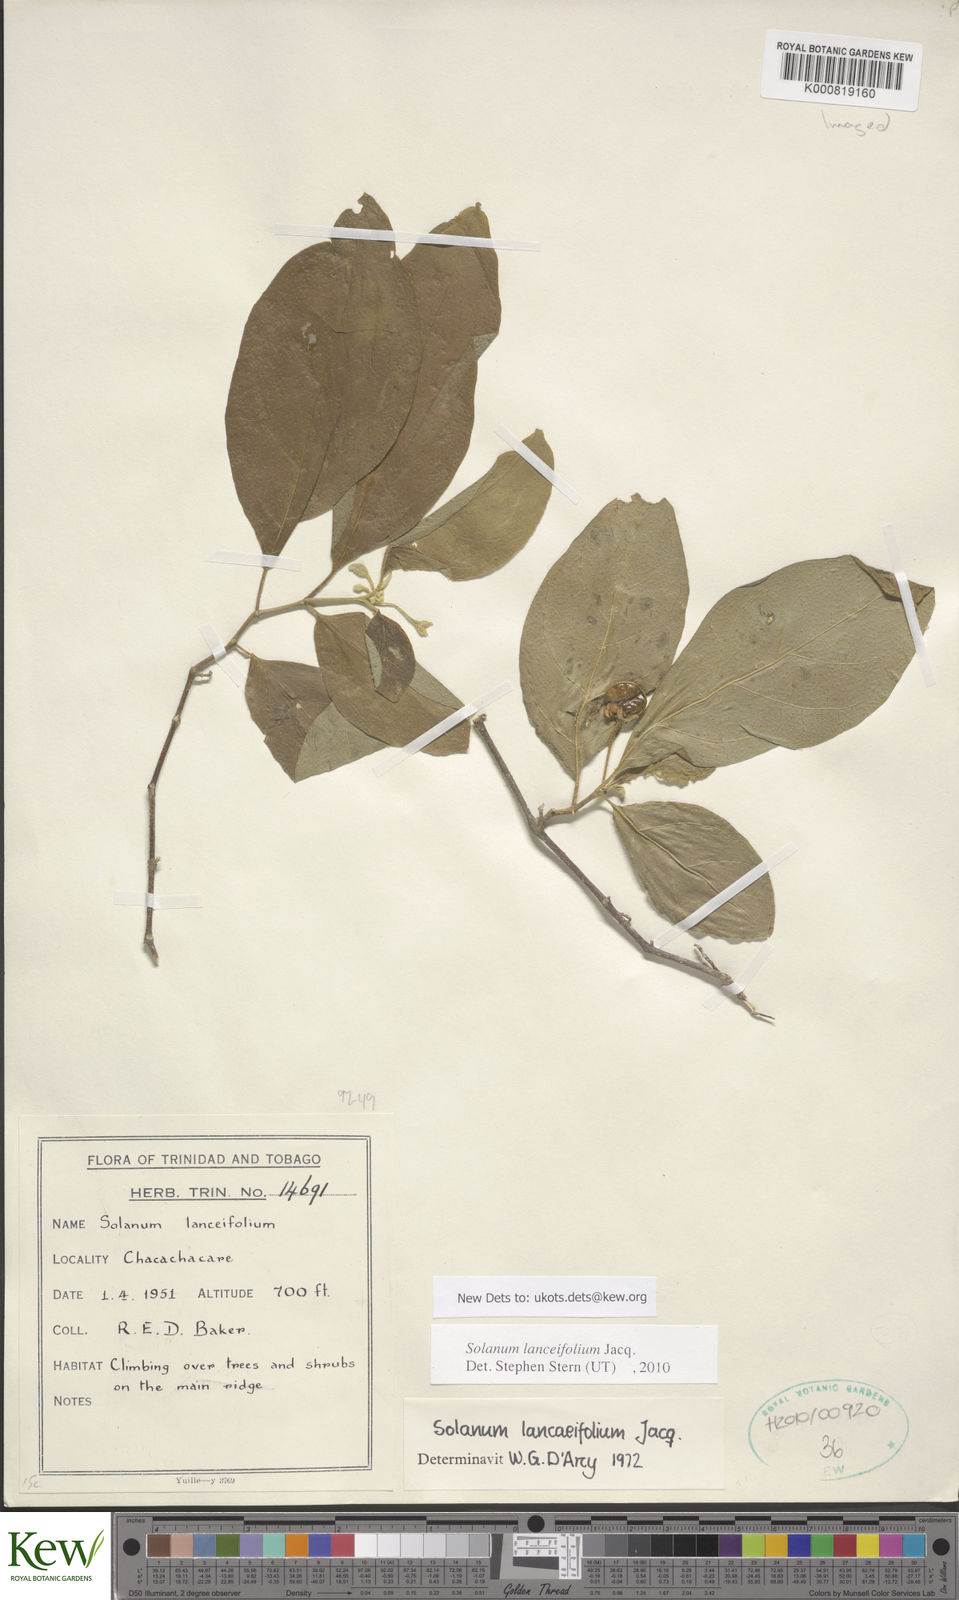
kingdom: Plantae
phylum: Tracheophyta
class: Magnoliopsida
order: Solanales
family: Solanaceae
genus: Solanum
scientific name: Solanum lanceifolium
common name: Lanceleaf nightshade
